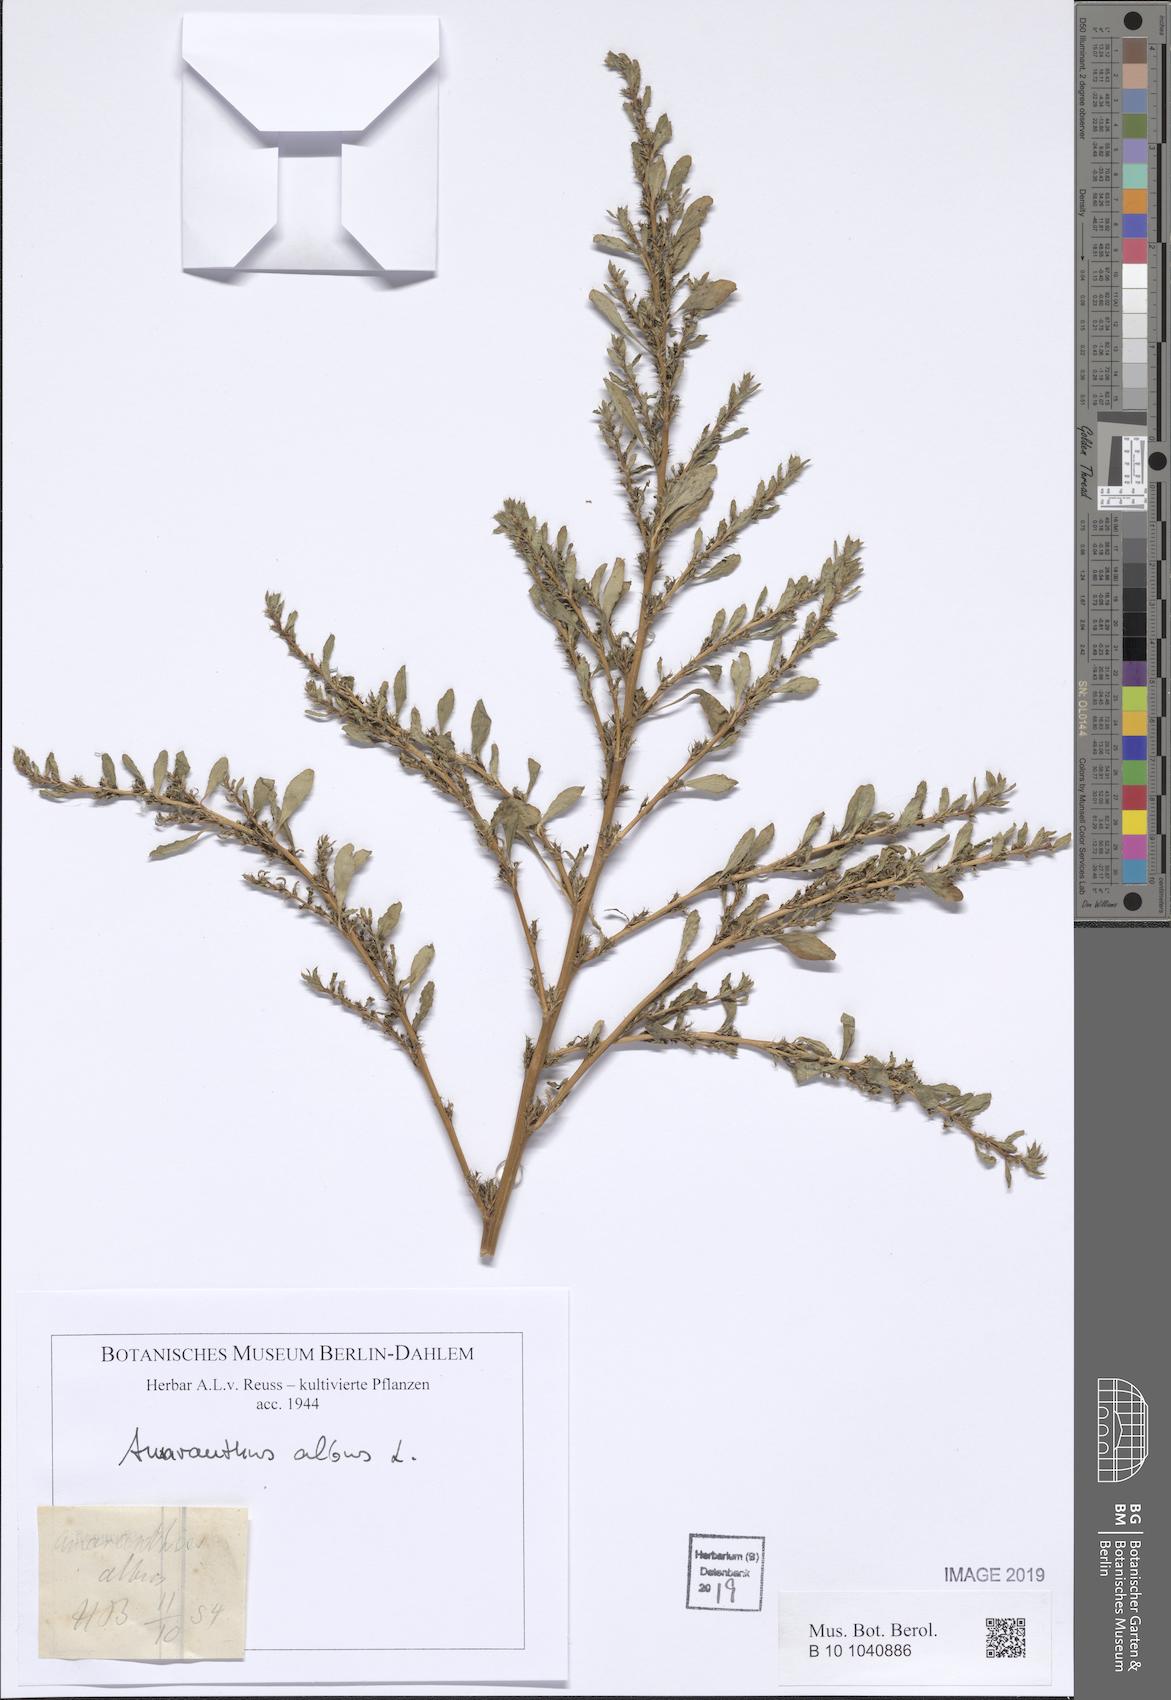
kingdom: Plantae
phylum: Tracheophyta
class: Magnoliopsida
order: Caryophyllales
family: Amaranthaceae
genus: Amaranthus
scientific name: Amaranthus albus
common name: White pigweed
